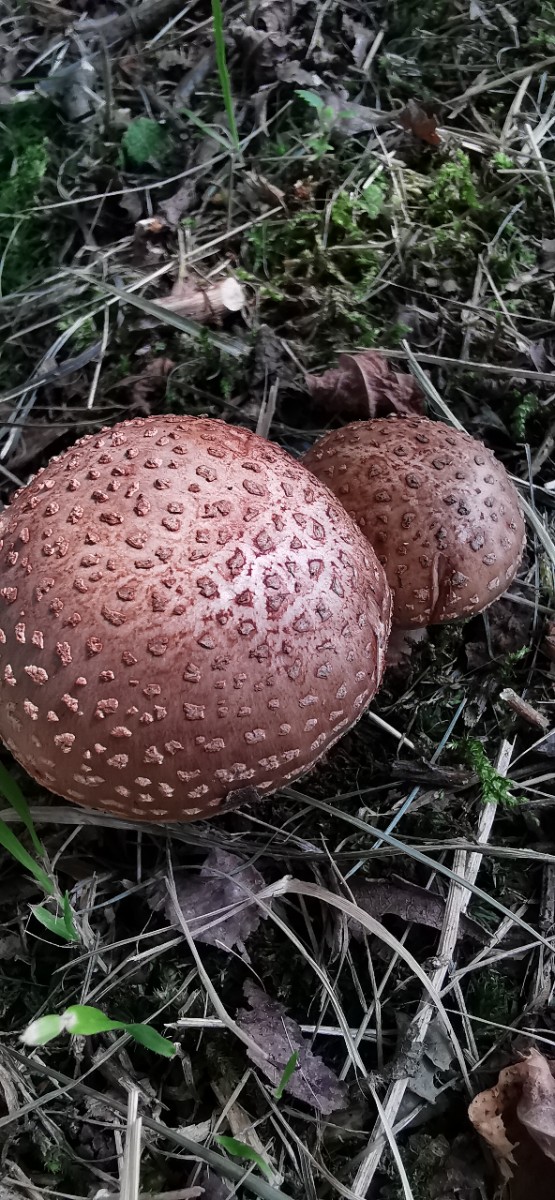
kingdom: Fungi
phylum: Basidiomycota
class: Agaricomycetes
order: Agaricales
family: Amanitaceae
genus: Amanita
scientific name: Amanita rubescens
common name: rødmende fluesvamp
